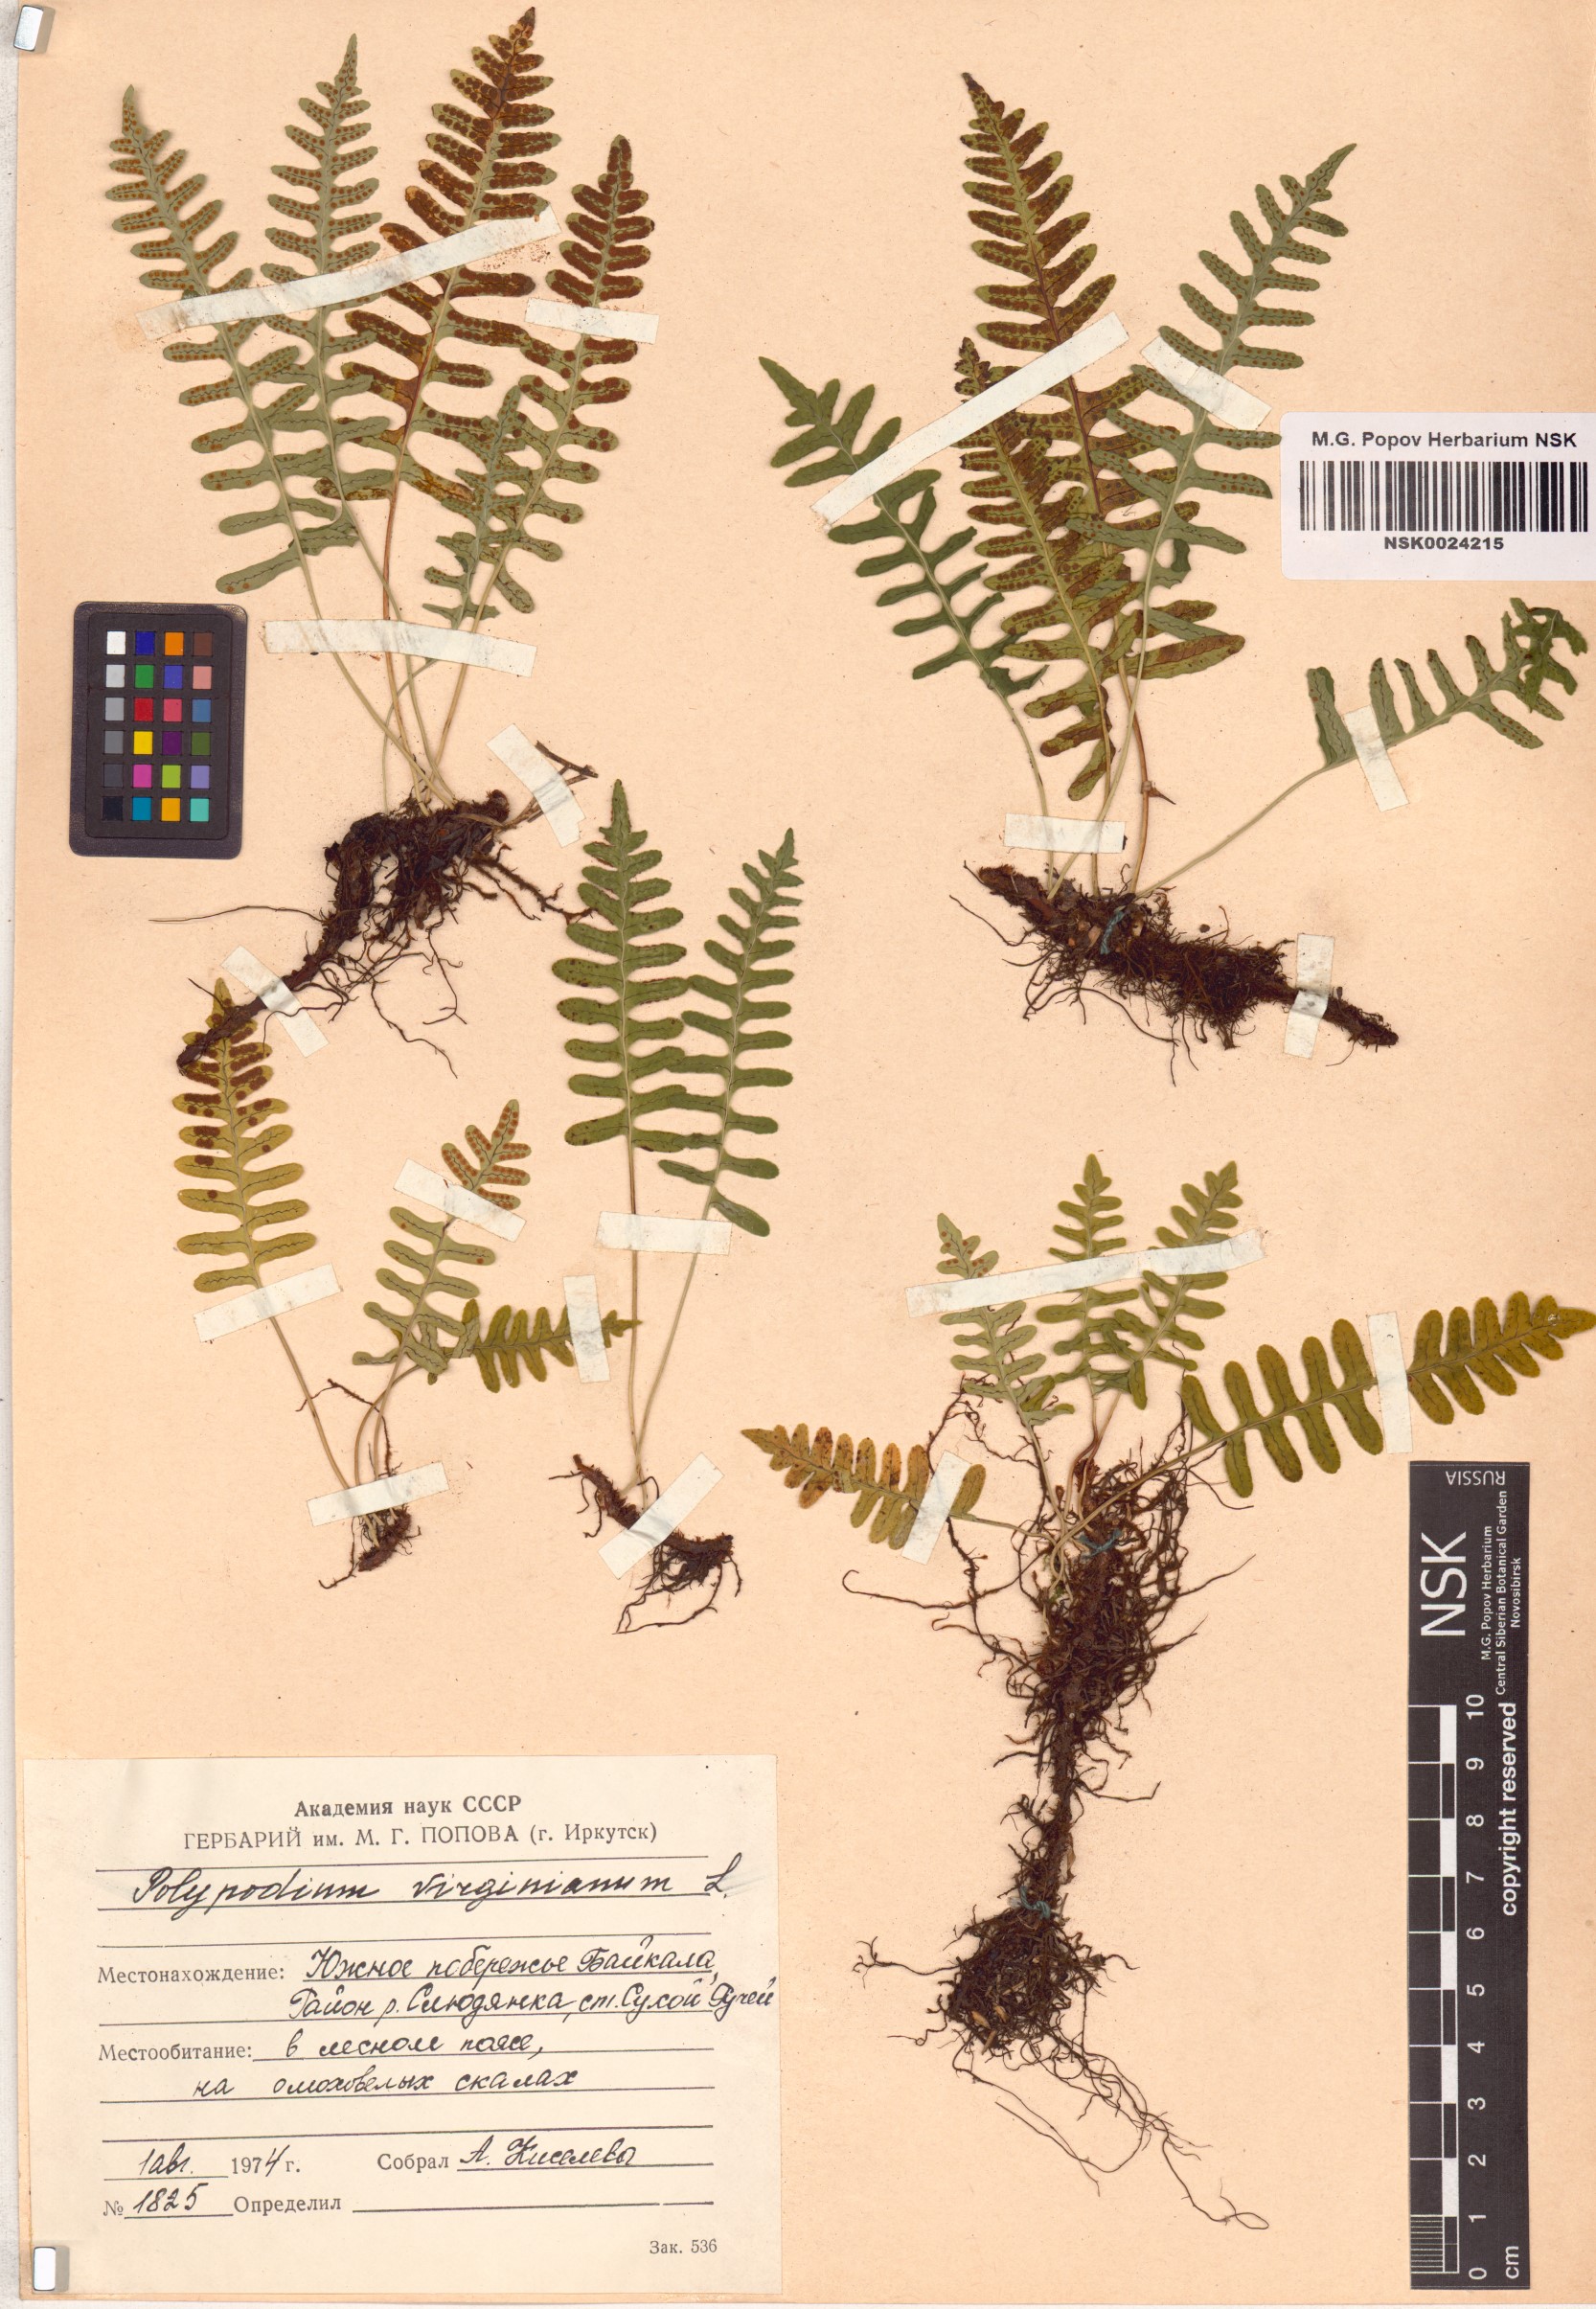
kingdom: Plantae
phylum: Tracheophyta
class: Polypodiopsida
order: Polypodiales
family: Polypodiaceae
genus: Polypodium
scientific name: Polypodium virginianum
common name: American wall fern
